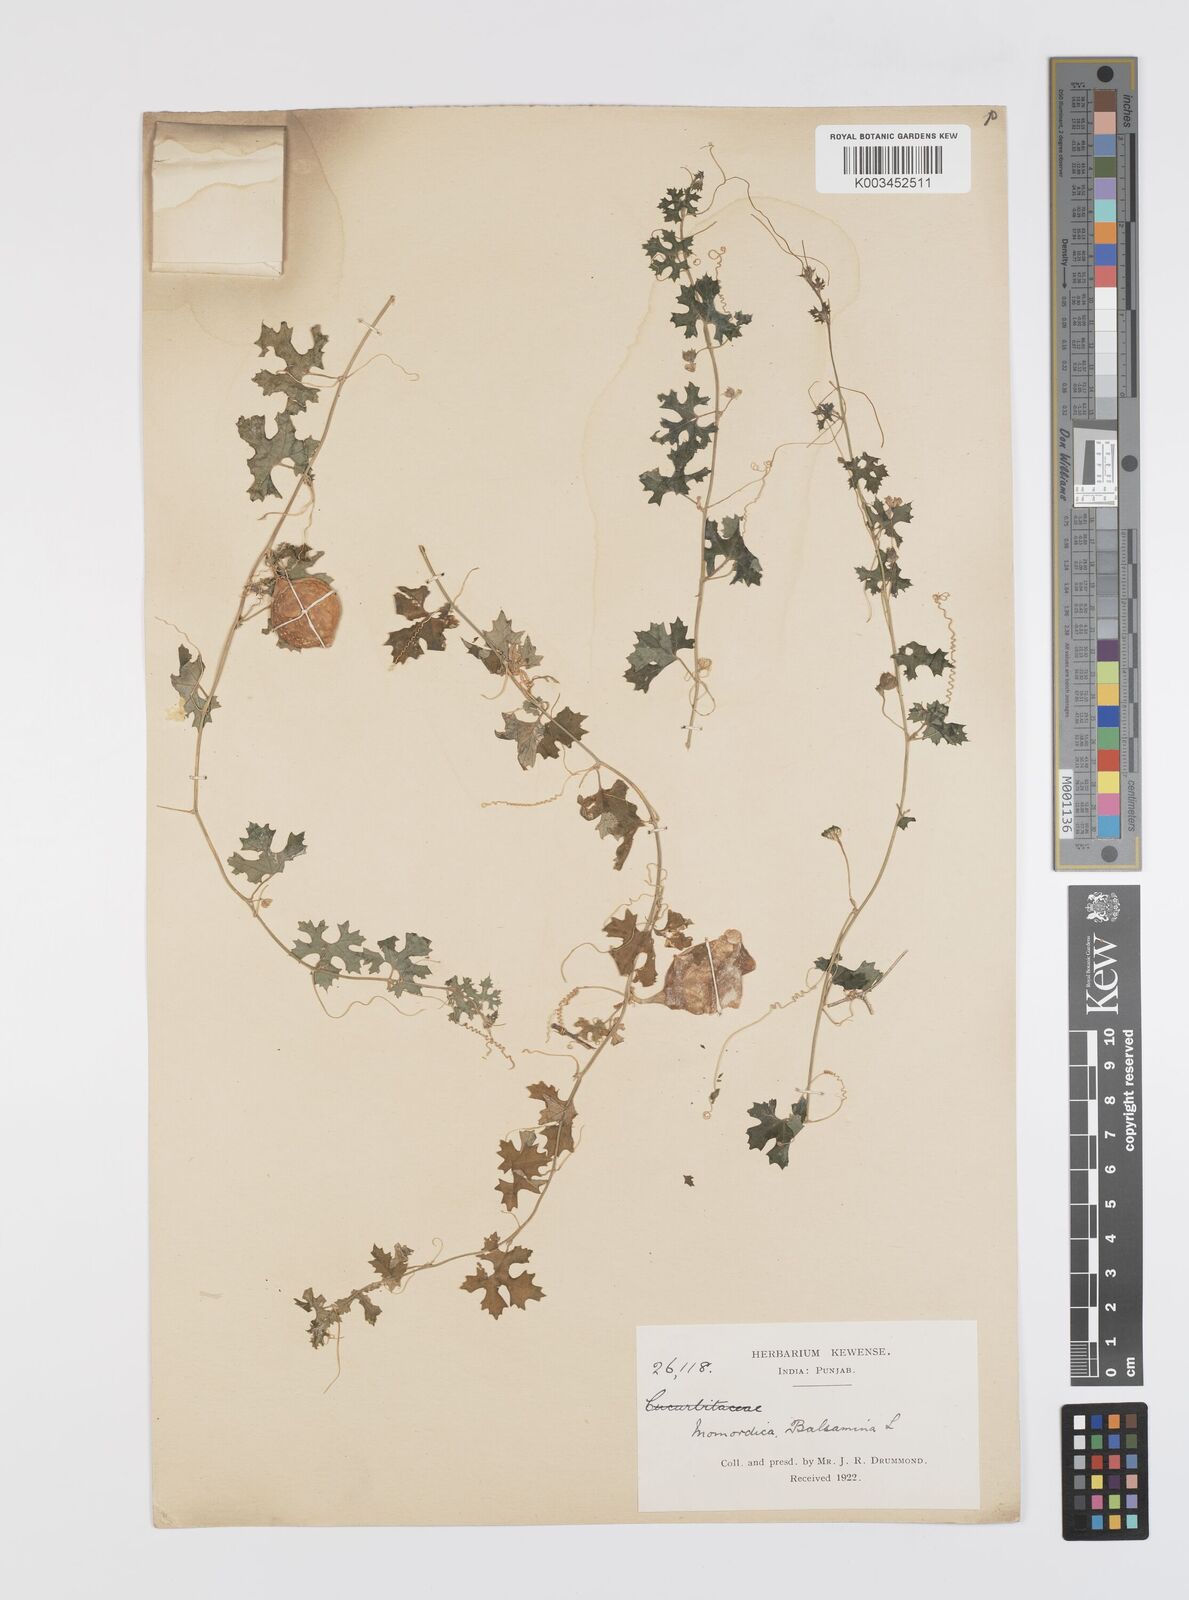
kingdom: Plantae
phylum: Tracheophyta
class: Magnoliopsida
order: Cucurbitales
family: Cucurbitaceae
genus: Momordica
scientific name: Momordica balsamina
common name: Southern balsampear
